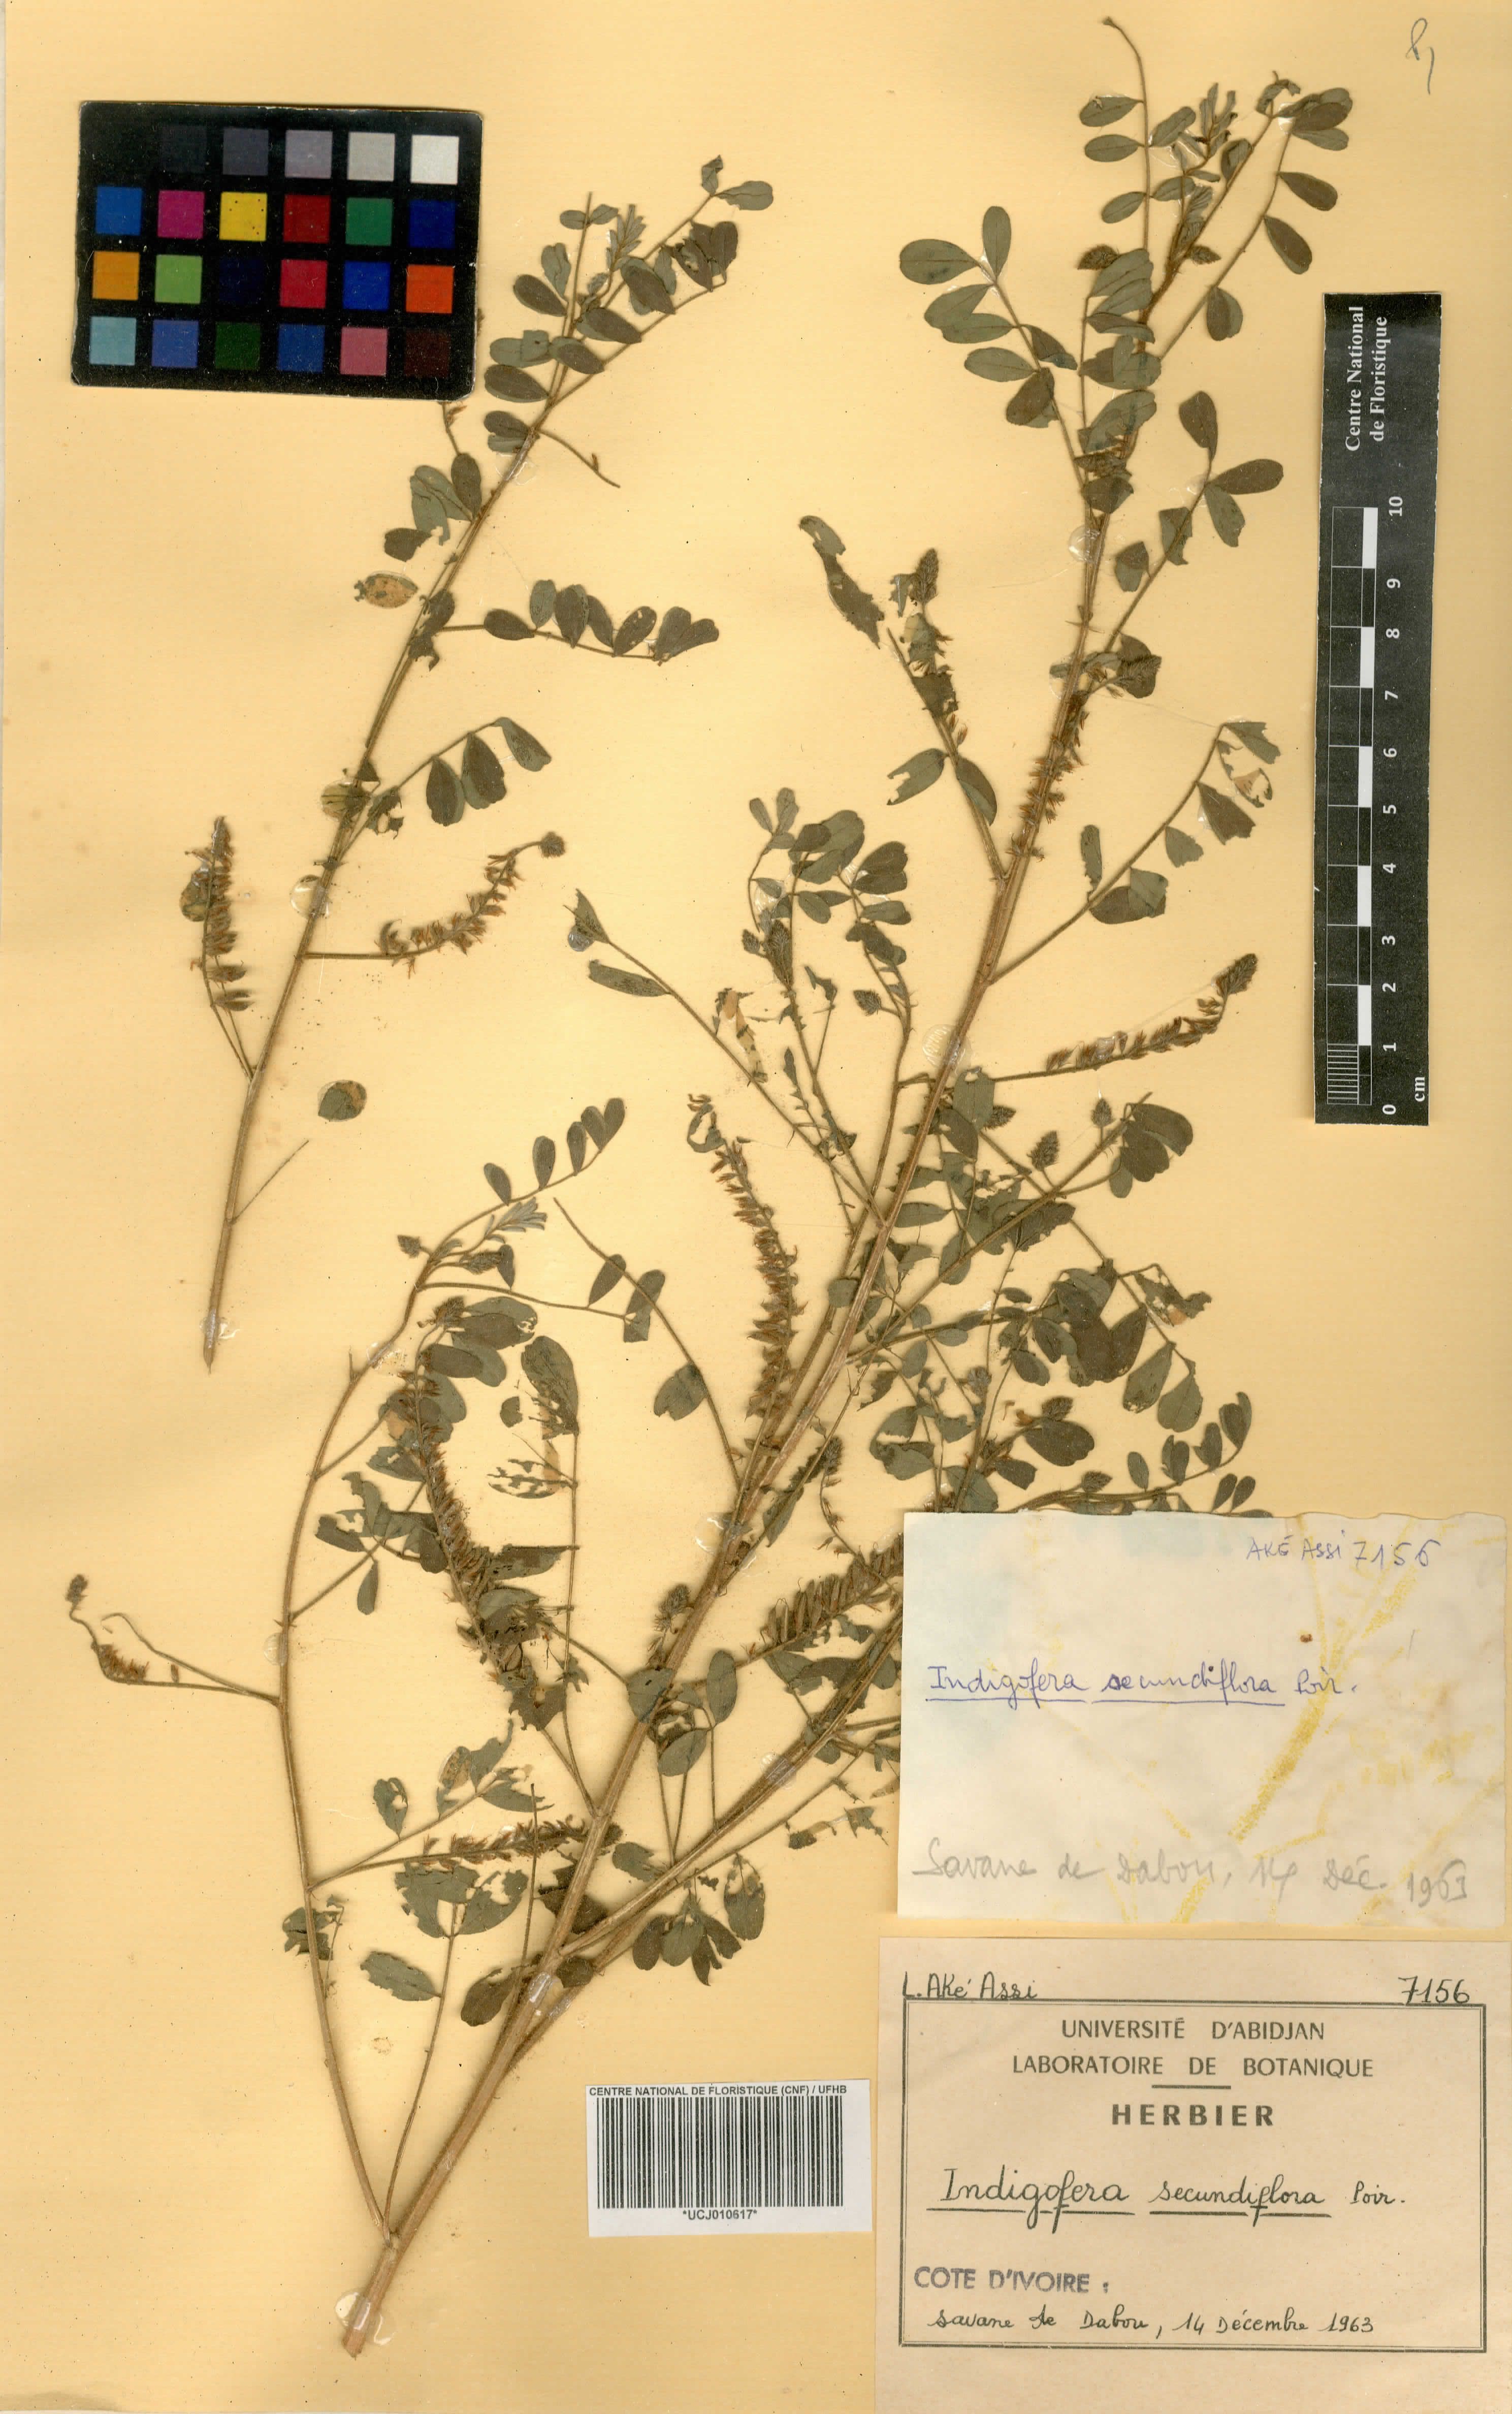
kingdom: Plantae
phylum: Tracheophyta
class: Magnoliopsida
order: Fabales
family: Fabaceae
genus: Indigofera
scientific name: Indigofera suffruticosa
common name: Anil de pasto
